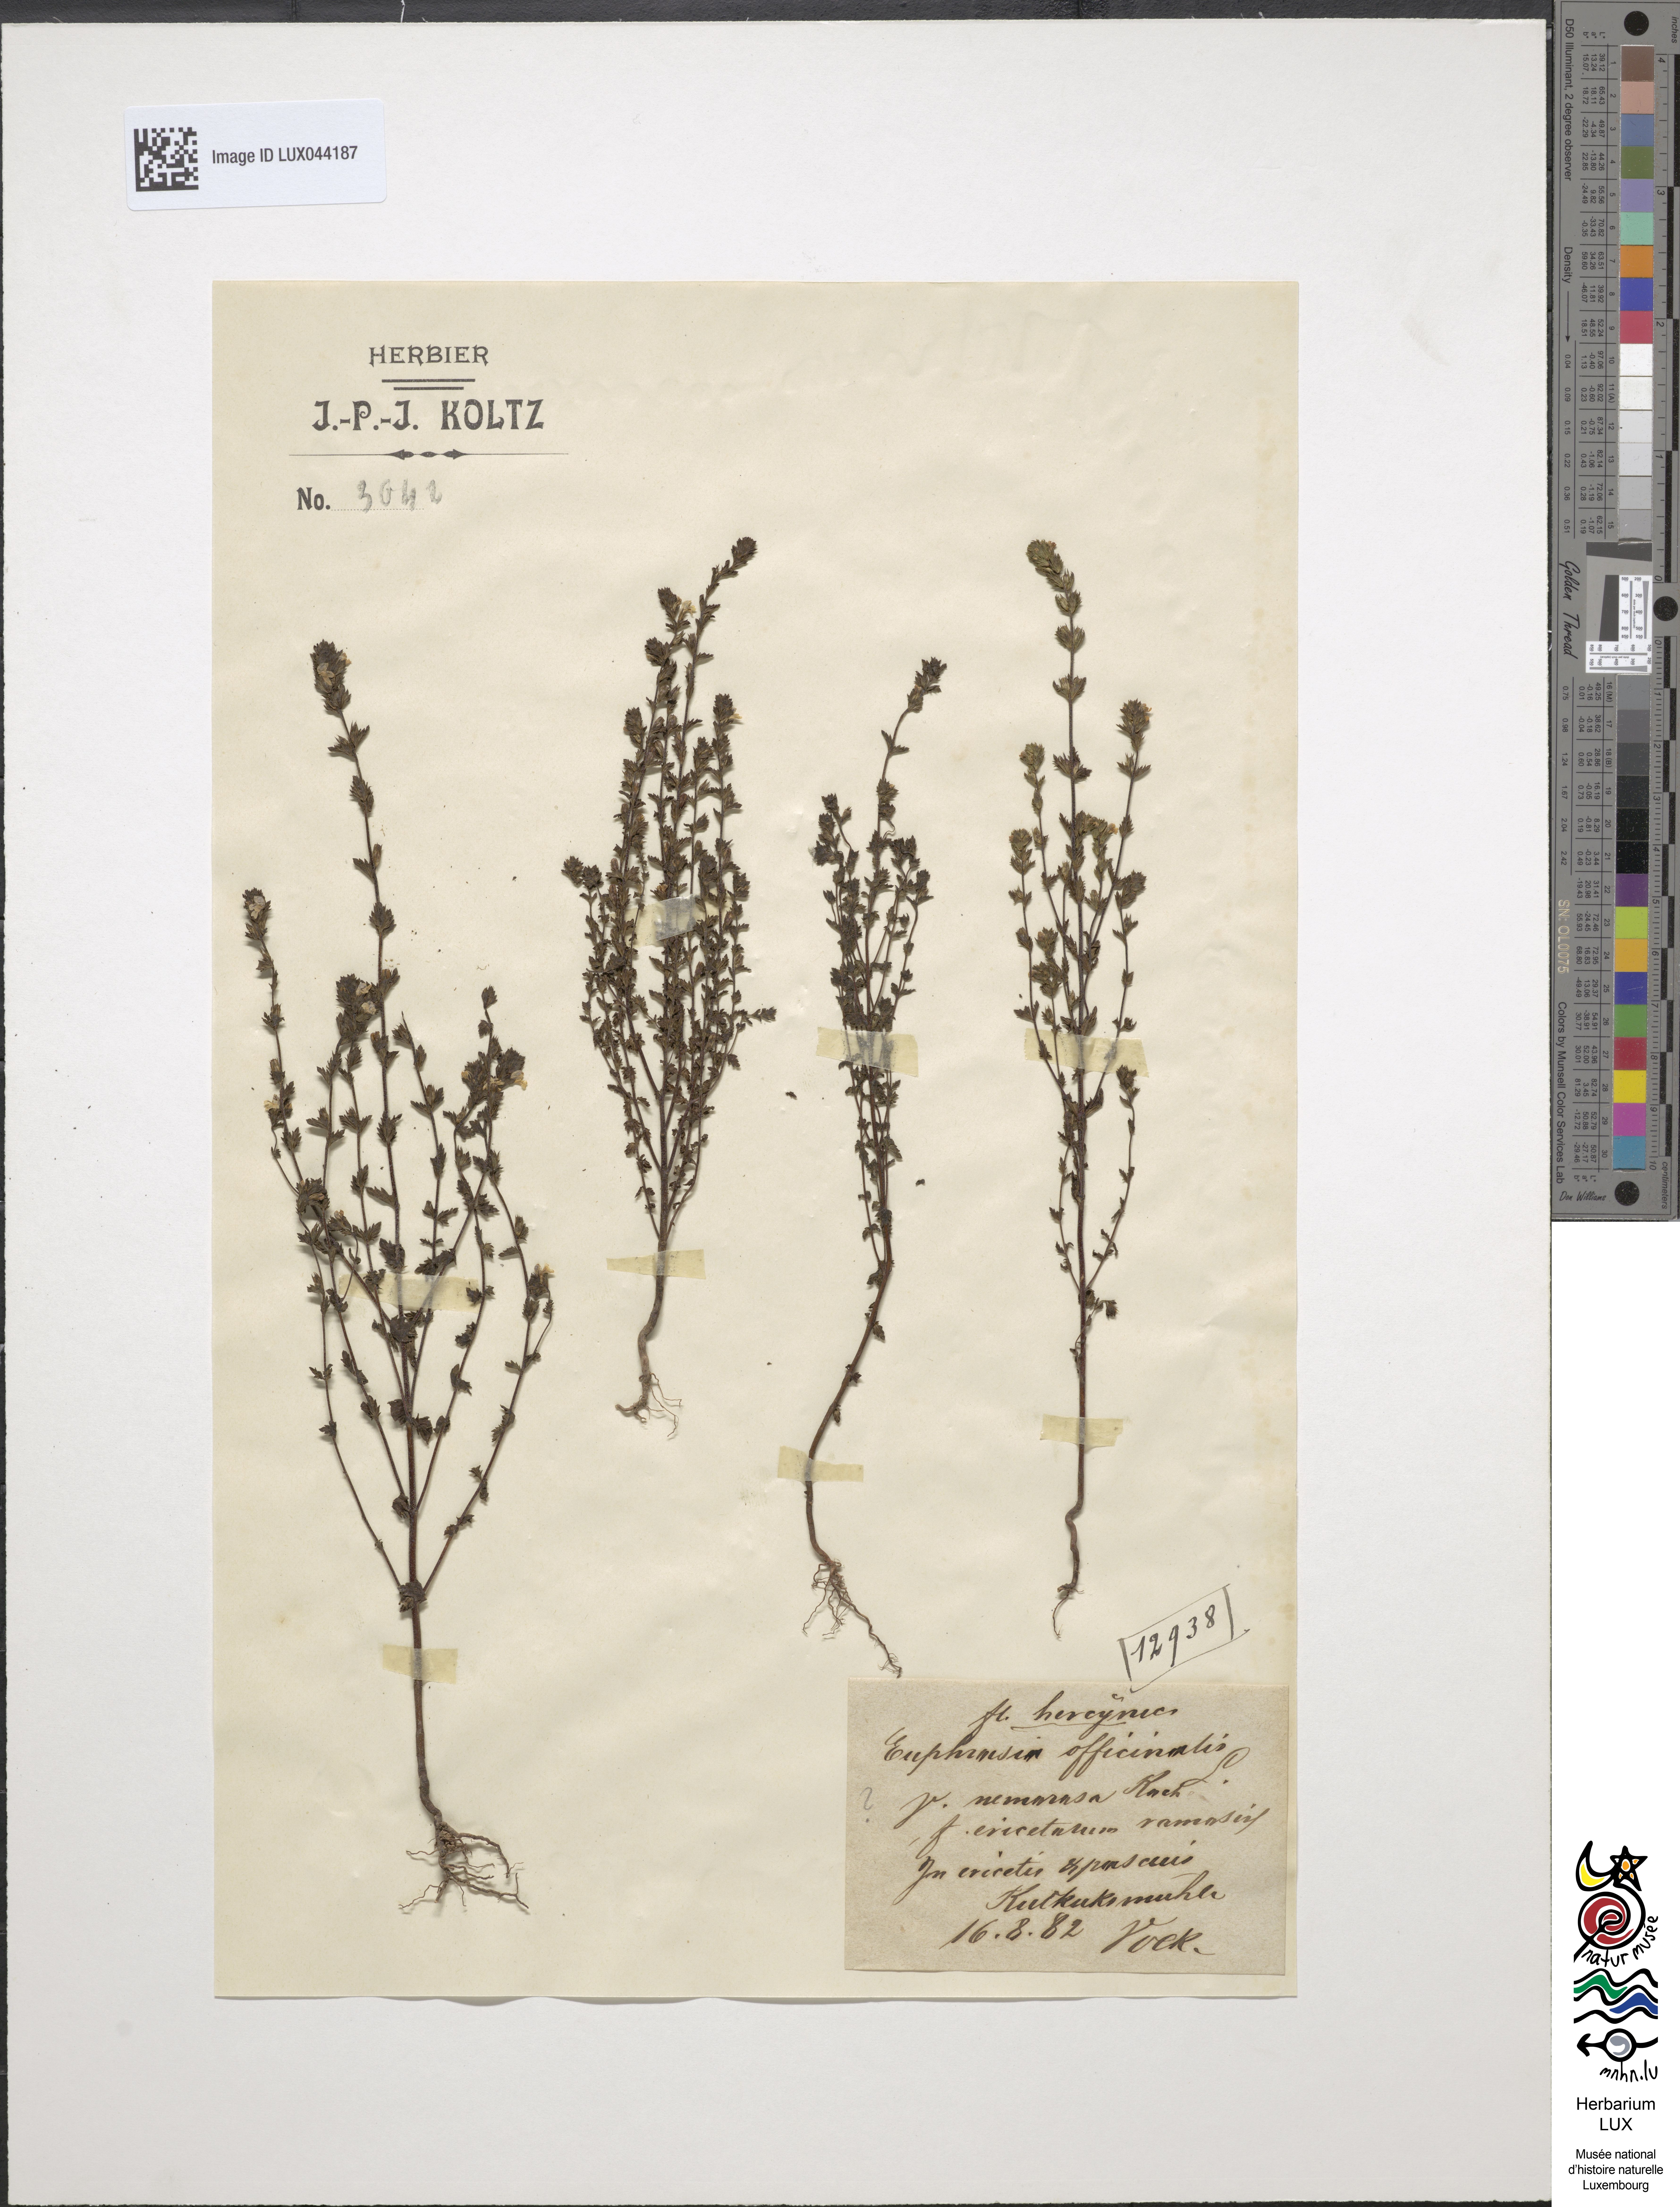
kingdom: Plantae
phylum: Tracheophyta
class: Magnoliopsida
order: Lamiales
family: Orobanchaceae
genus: Euphrasia
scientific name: Euphrasia hirtella
